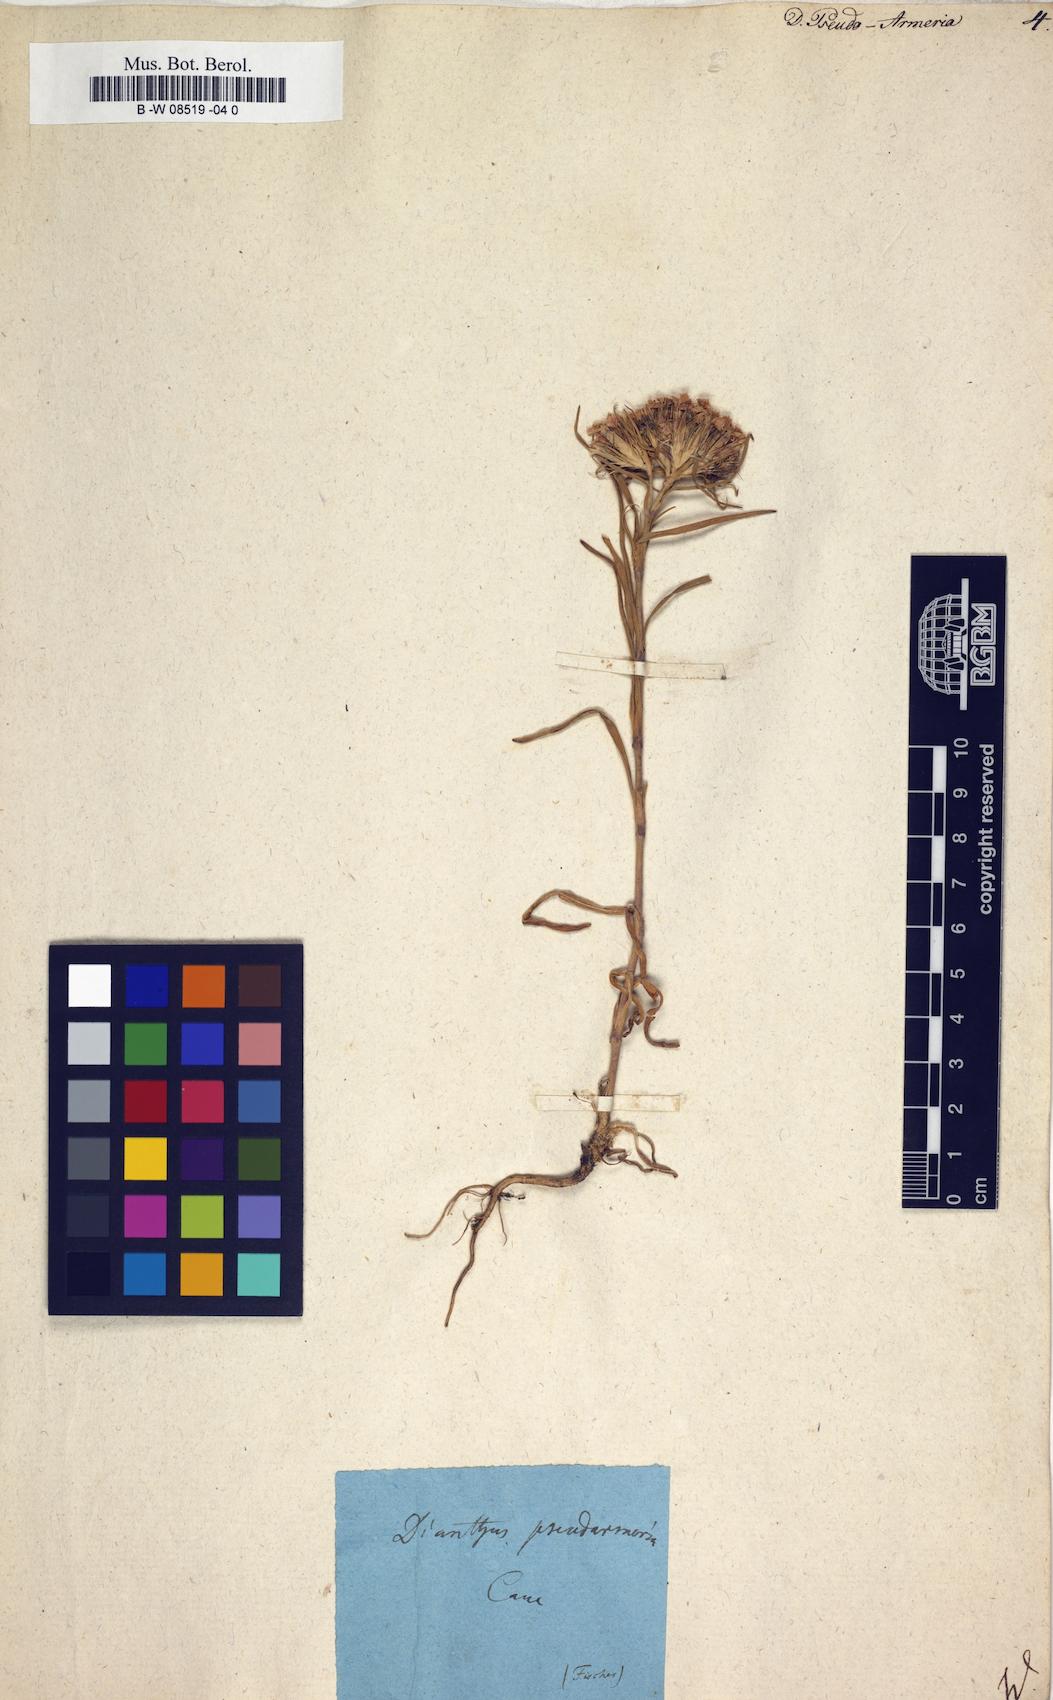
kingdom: Plantae
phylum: Tracheophyta
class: Magnoliopsida
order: Caryophyllales
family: Caryophyllaceae
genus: Dianthus
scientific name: Dianthus pseudoarmeria
